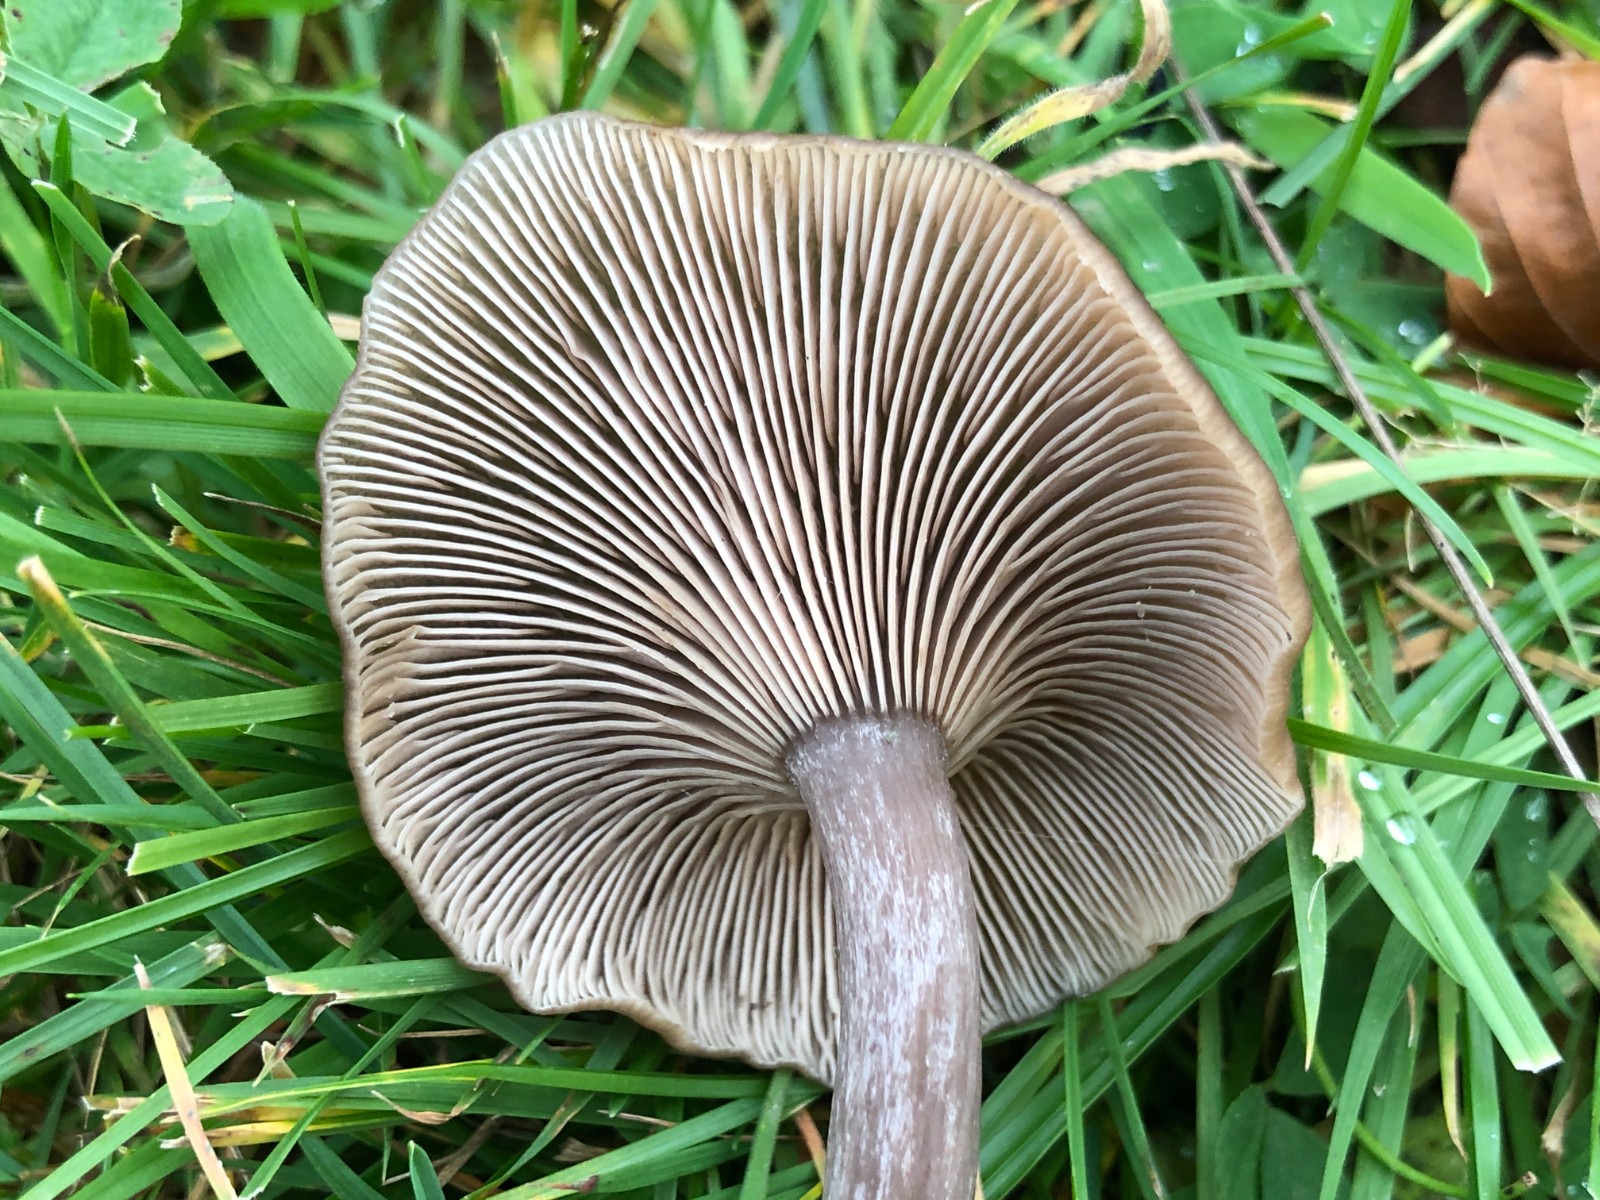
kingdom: Fungi
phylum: Basidiomycota
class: Agaricomycetes
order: Agaricales
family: Pseudoclitocybaceae
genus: Pseudoclitocybe
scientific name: Pseudoclitocybe expallens
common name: lille bægertragthat
